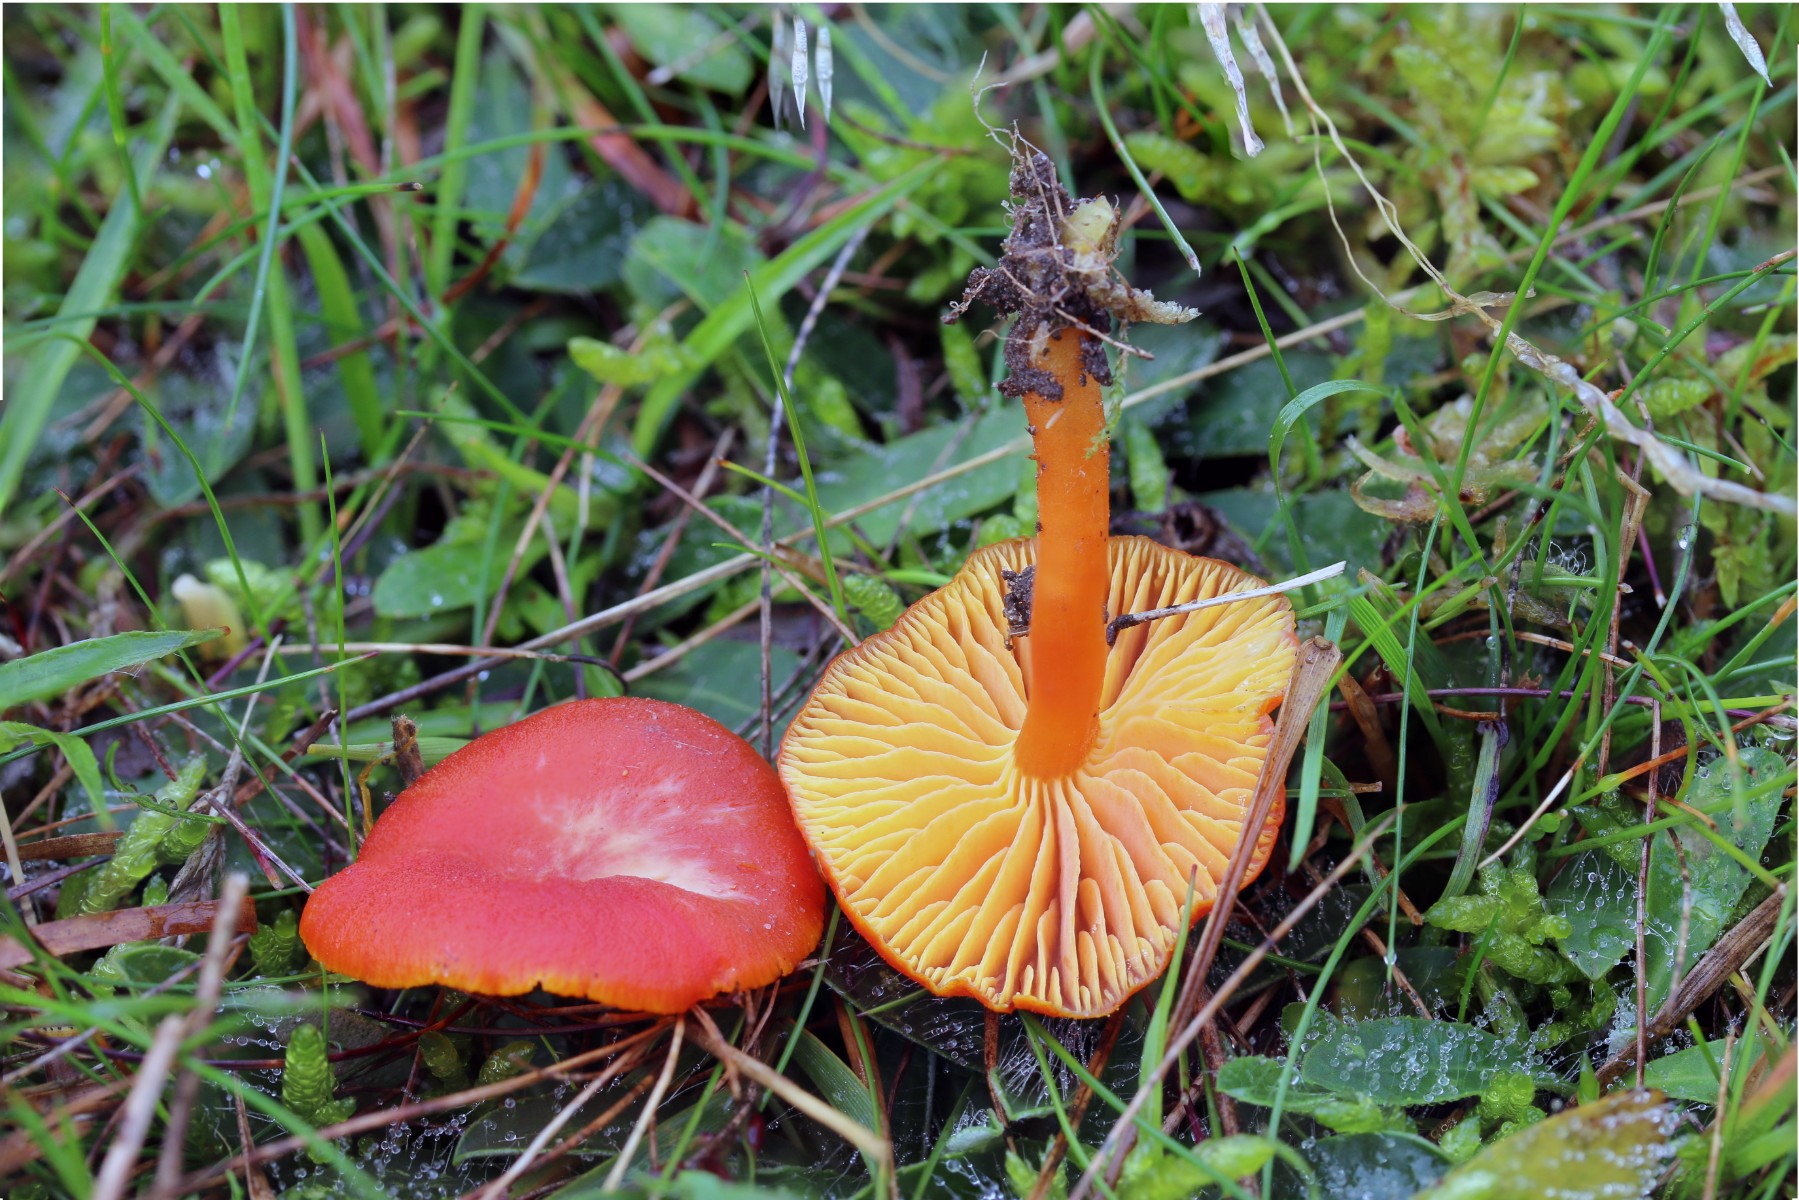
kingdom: Fungi
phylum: Basidiomycota
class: Agaricomycetes
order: Agaricales
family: Hygrophoraceae
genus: Hygrocybe
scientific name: Hygrocybe miniata
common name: mønje-vokshat
